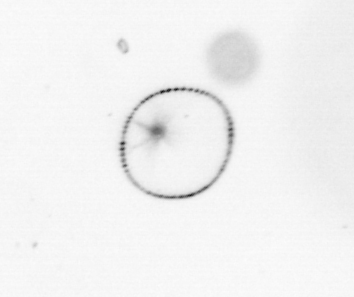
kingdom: Chromista
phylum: Myzozoa
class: Dinophyceae
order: Noctilucales
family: Noctilucaceae
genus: Noctiluca
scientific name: Noctiluca scintillans
